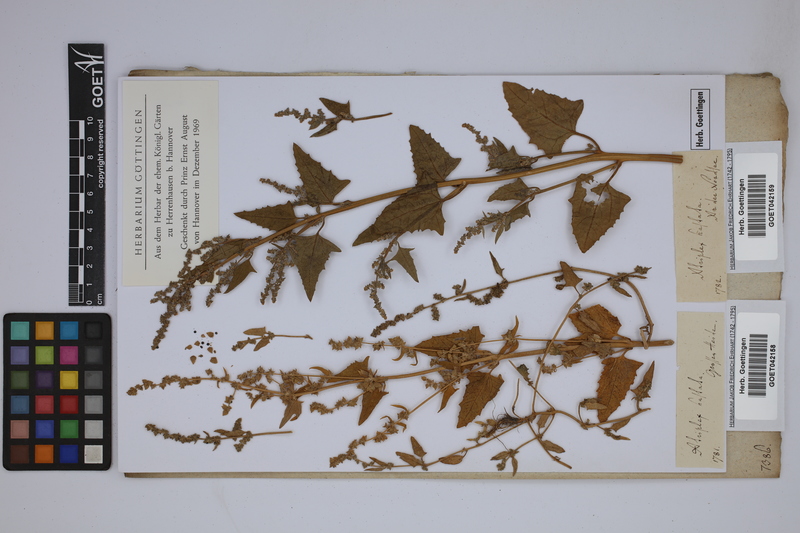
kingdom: Plantae
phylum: Tracheophyta
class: Magnoliopsida
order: Caryophyllales
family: Amaranthaceae
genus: Atriplex
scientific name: Atriplex calotheca
